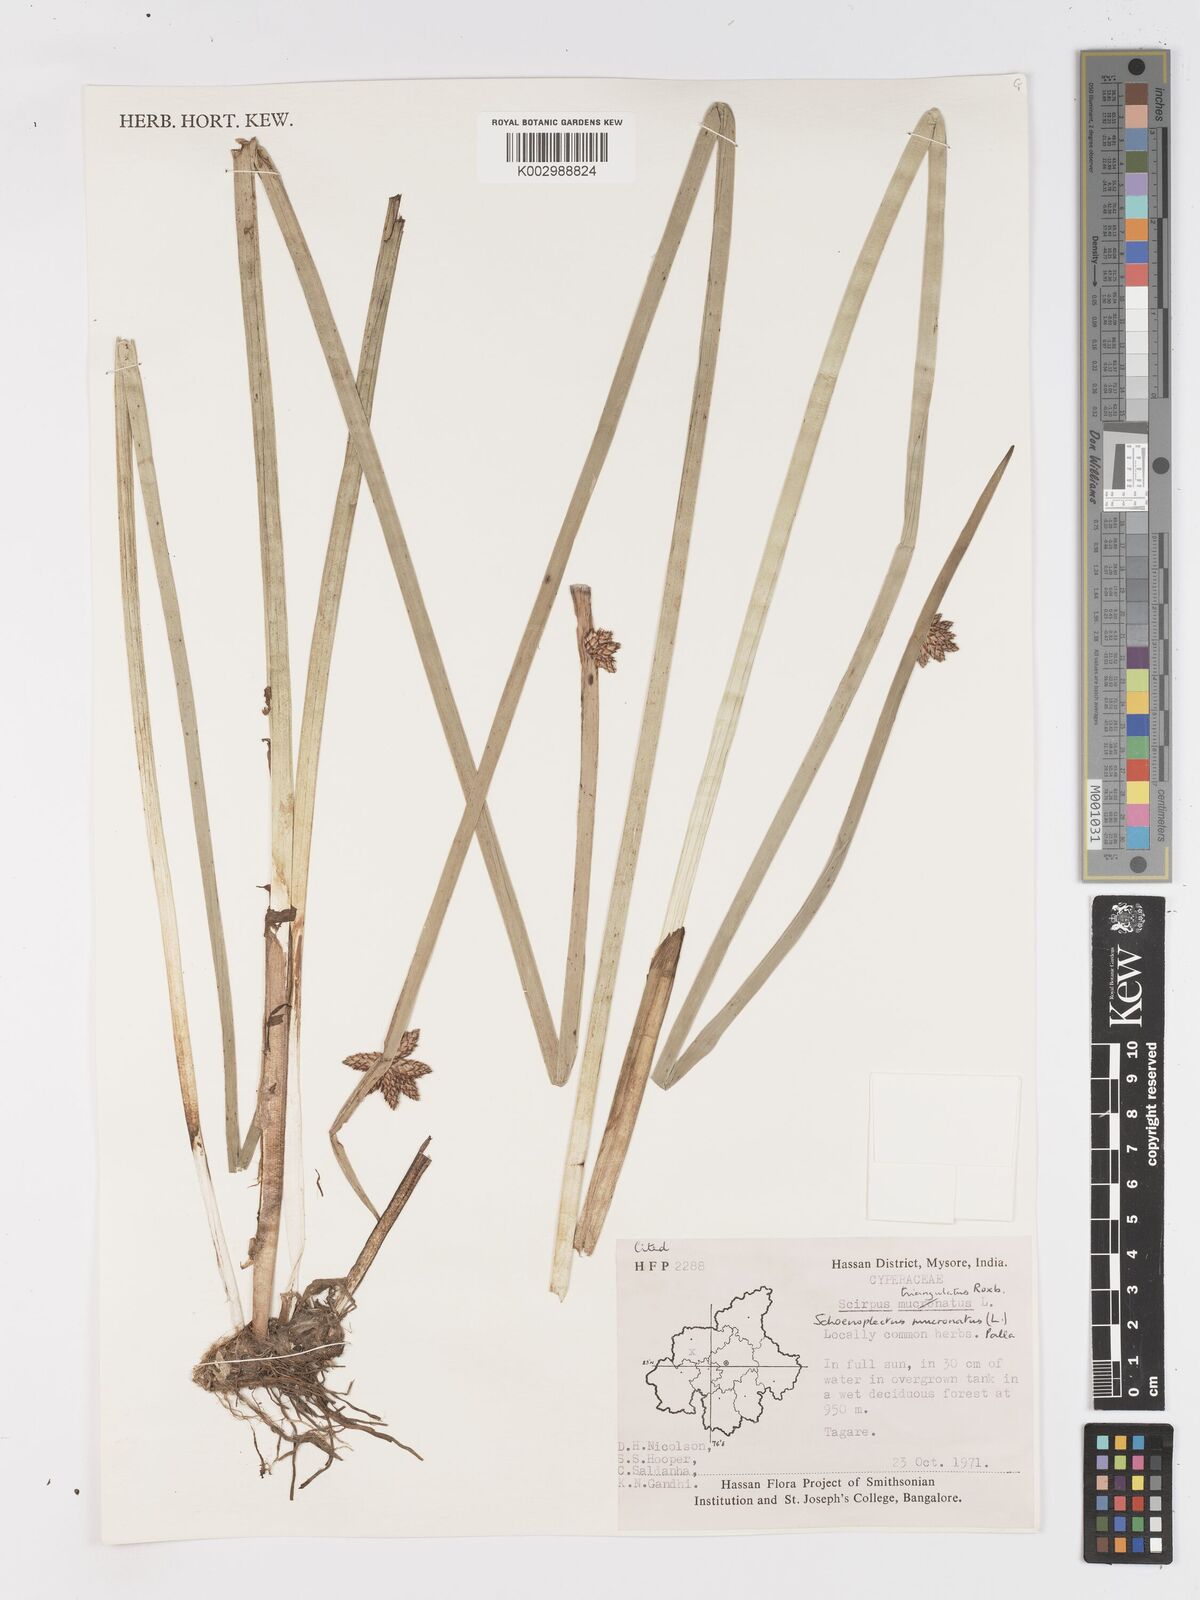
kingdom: Plantae
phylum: Tracheophyta
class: Liliopsida
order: Poales
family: Cyperaceae
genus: Schoenoplectiella
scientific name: Schoenoplectiella mucronata
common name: Bog bulrush
